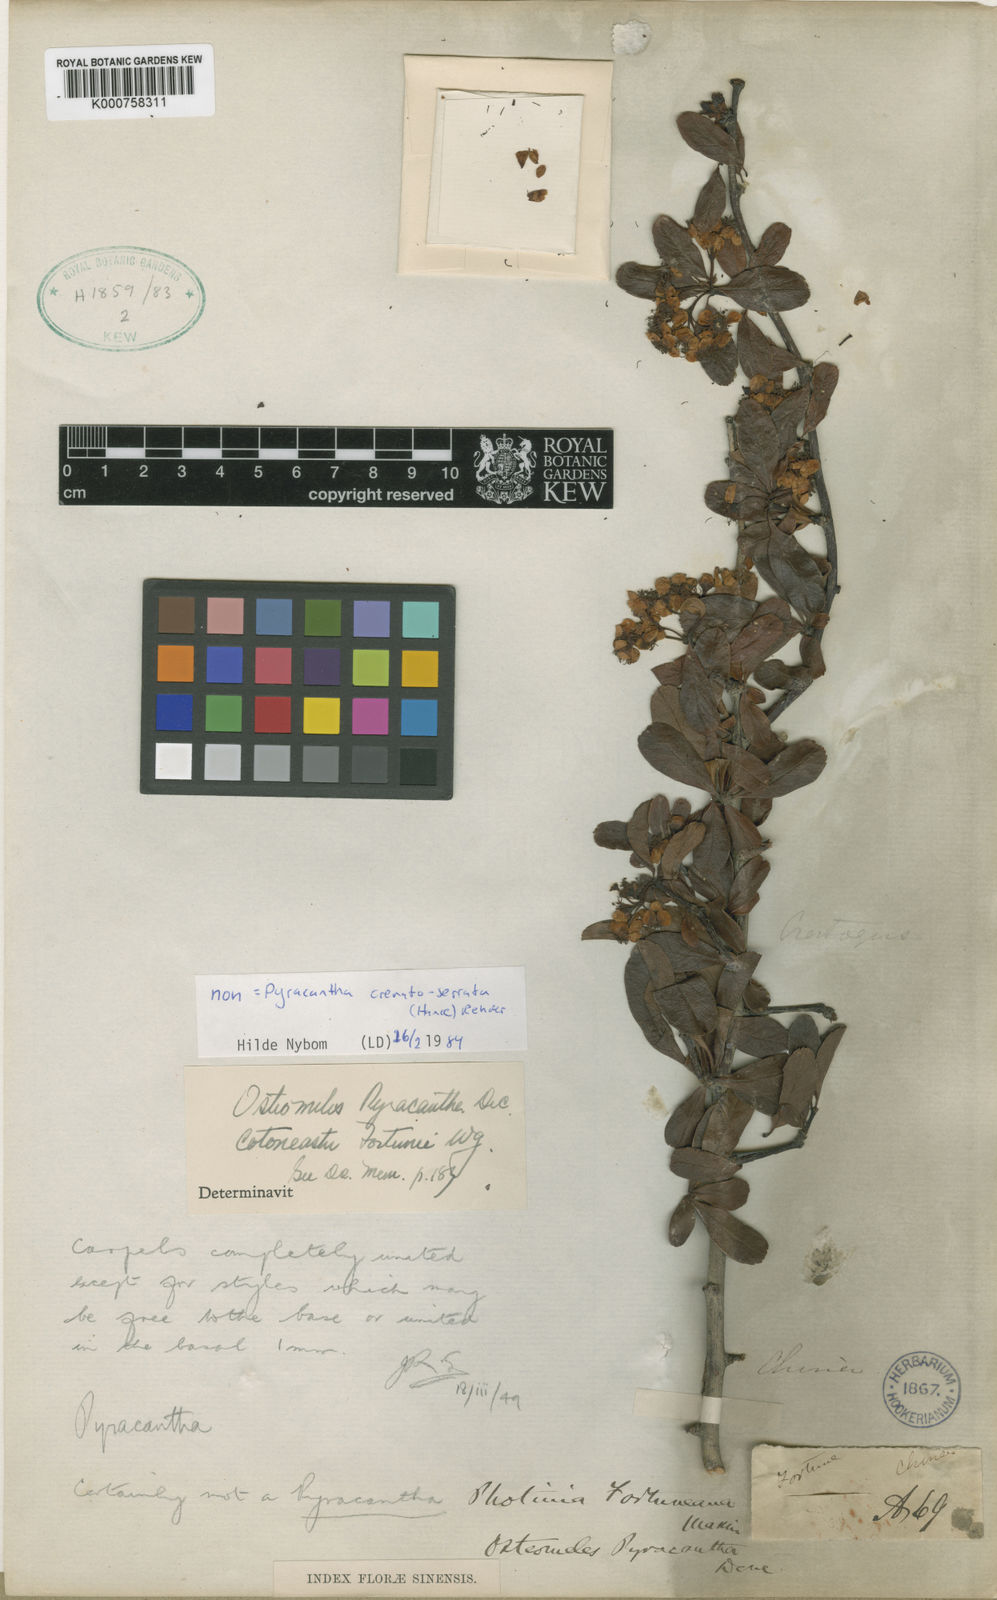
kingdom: Plantae
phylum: Tracheophyta
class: Magnoliopsida
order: Rosales
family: Rosaceae
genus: Pyracantha
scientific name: Pyracantha fortuneana
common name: Chinese firethorn
